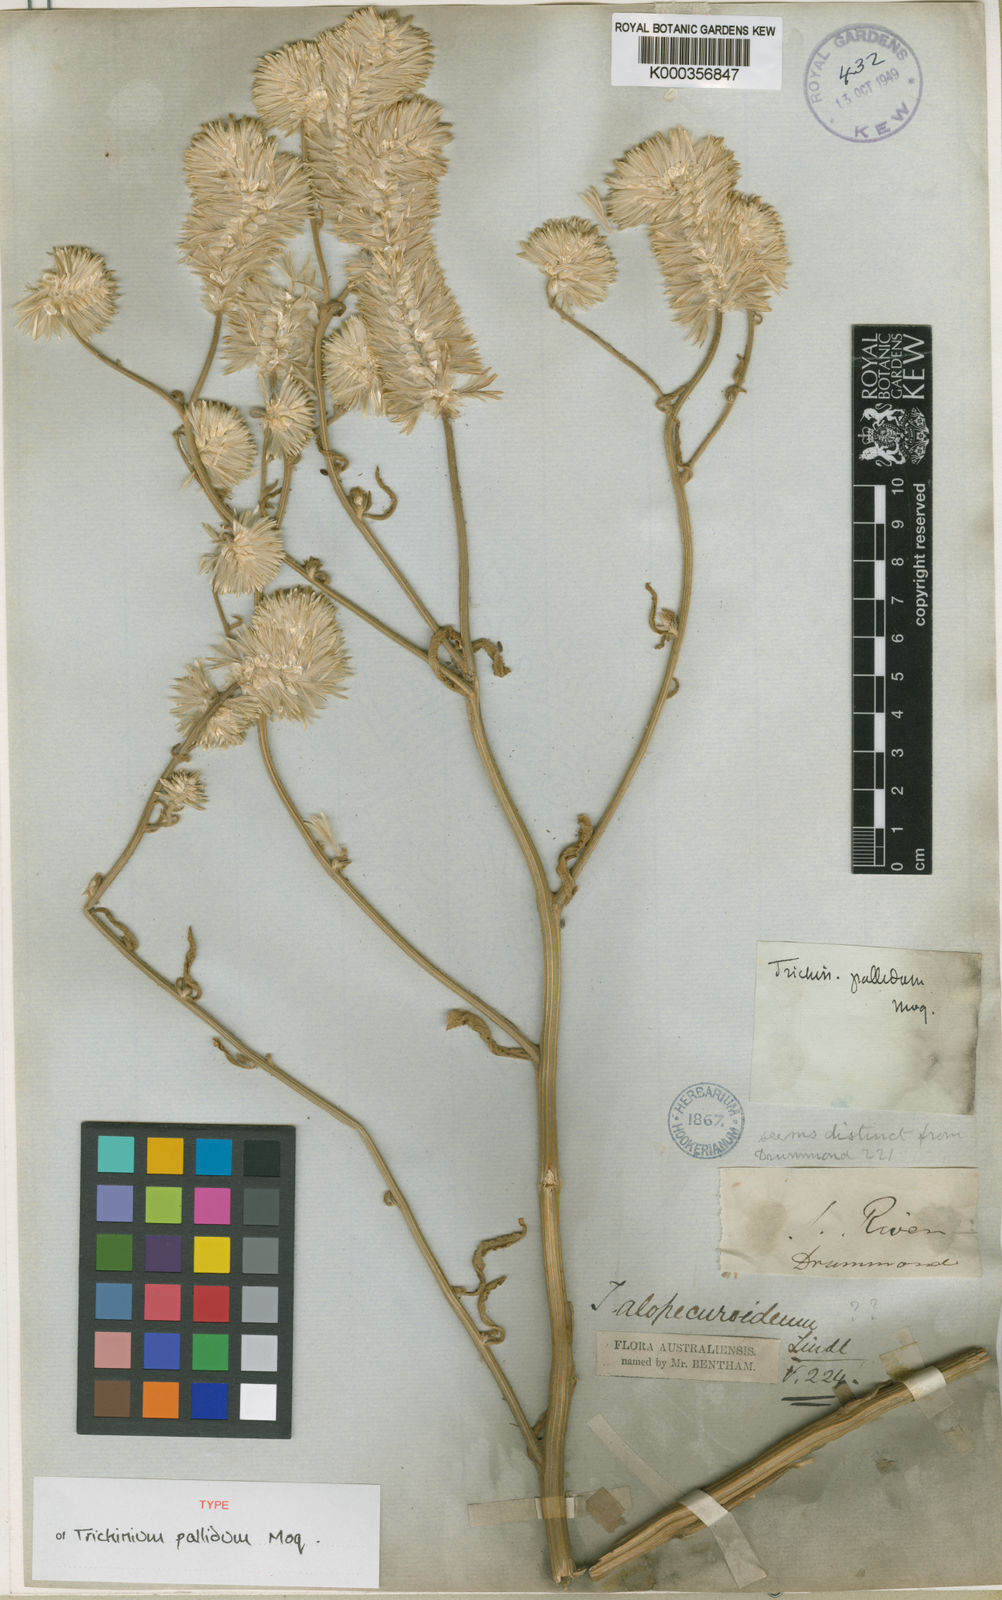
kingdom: Plantae
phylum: Tracheophyta
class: Magnoliopsida
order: Caryophyllales
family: Amaranthaceae
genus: Ptilotus
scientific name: Ptilotus polystachyus
